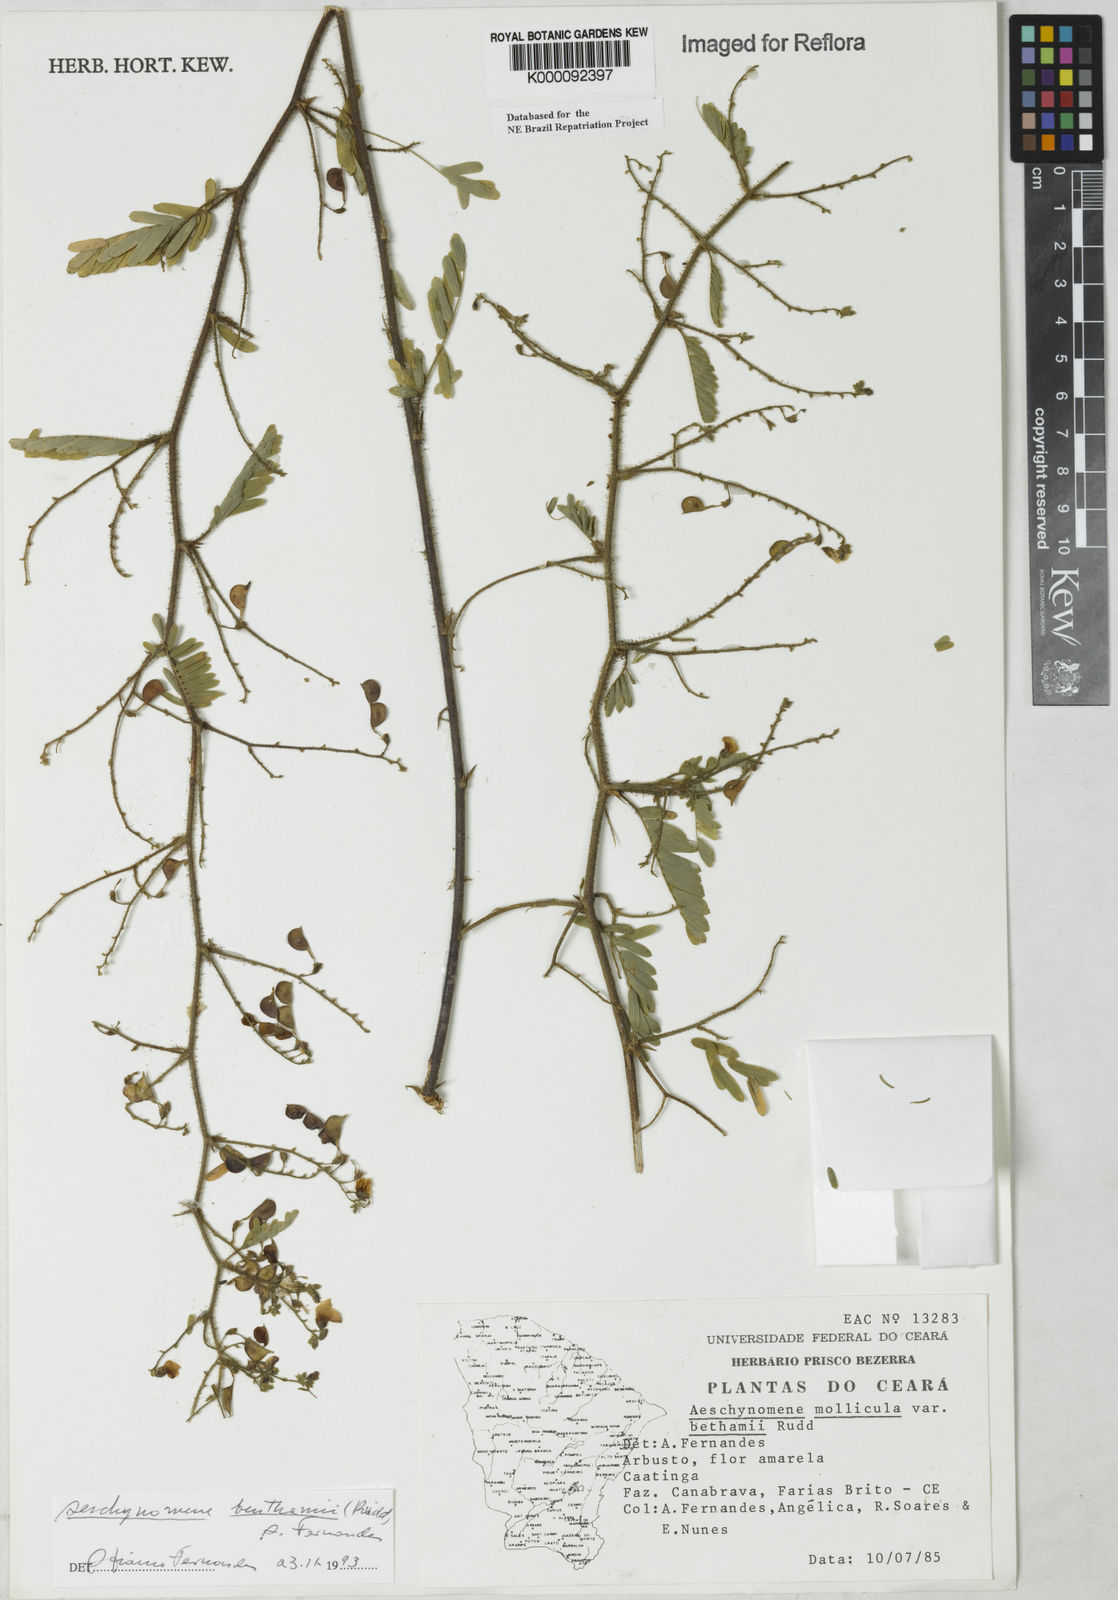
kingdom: Plantae
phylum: Tracheophyta
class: Magnoliopsida
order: Fabales
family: Fabaceae
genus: Aeschynomene
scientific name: Aeschynomene
